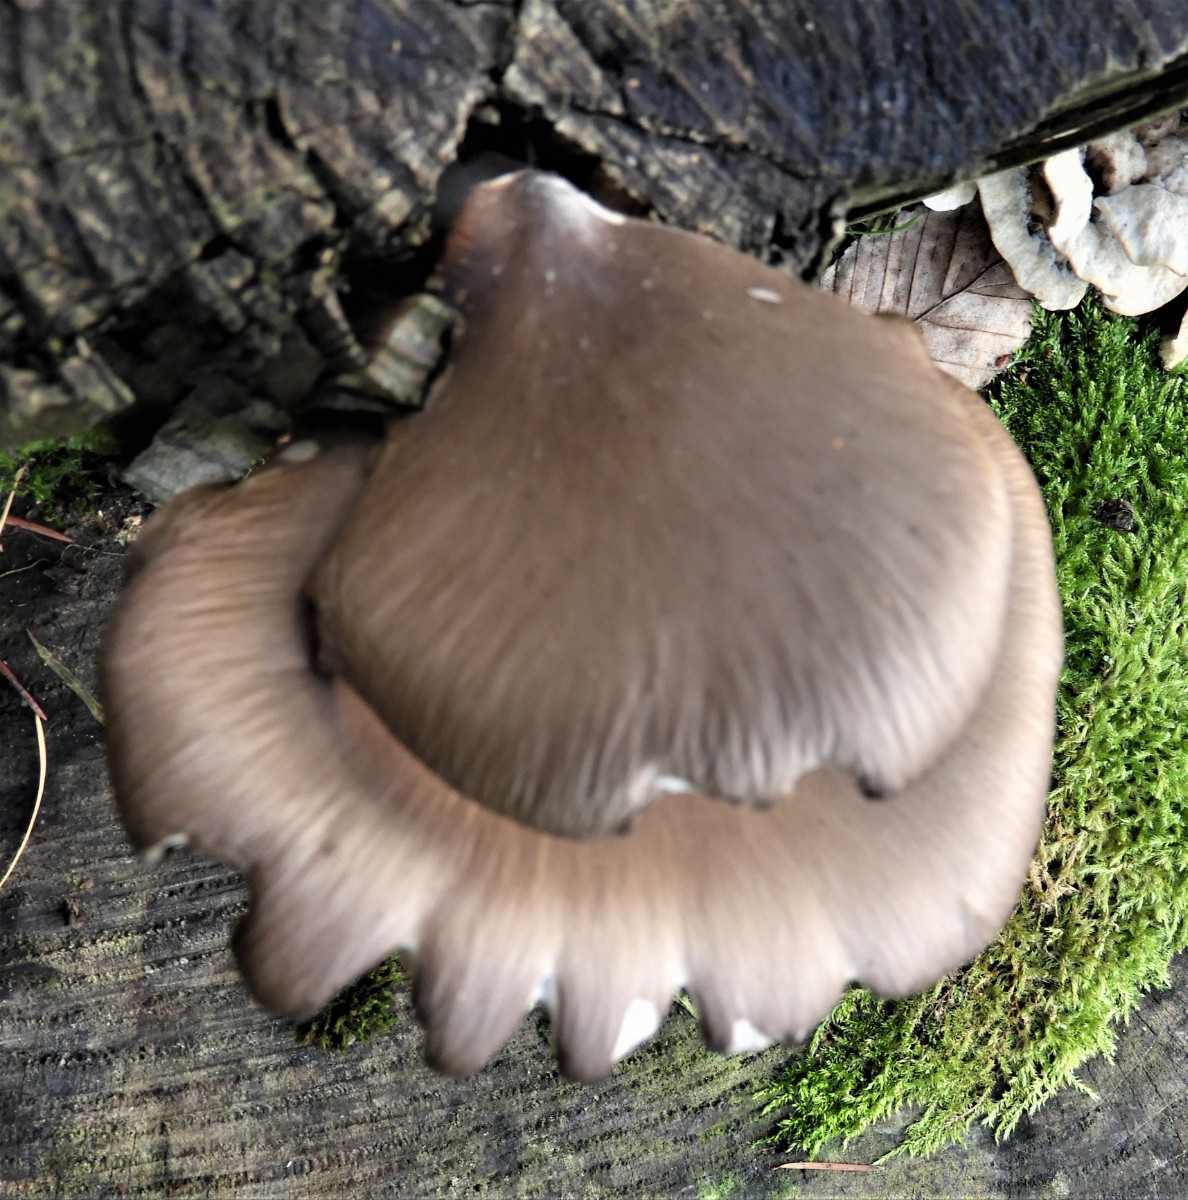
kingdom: Fungi
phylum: Basidiomycota
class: Agaricomycetes
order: Agaricales
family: Pleurotaceae
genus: Pleurotus
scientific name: Pleurotus ostreatus
